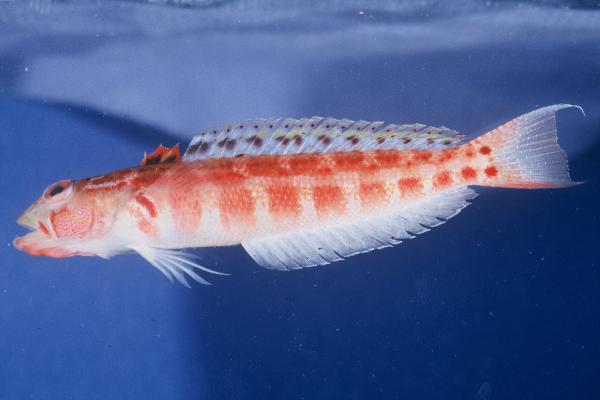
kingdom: Animalia
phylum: Chordata
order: Perciformes
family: Pinguipedidae
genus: Parapercis
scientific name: Parapercis schauinslandii
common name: Redspotted sandperch
